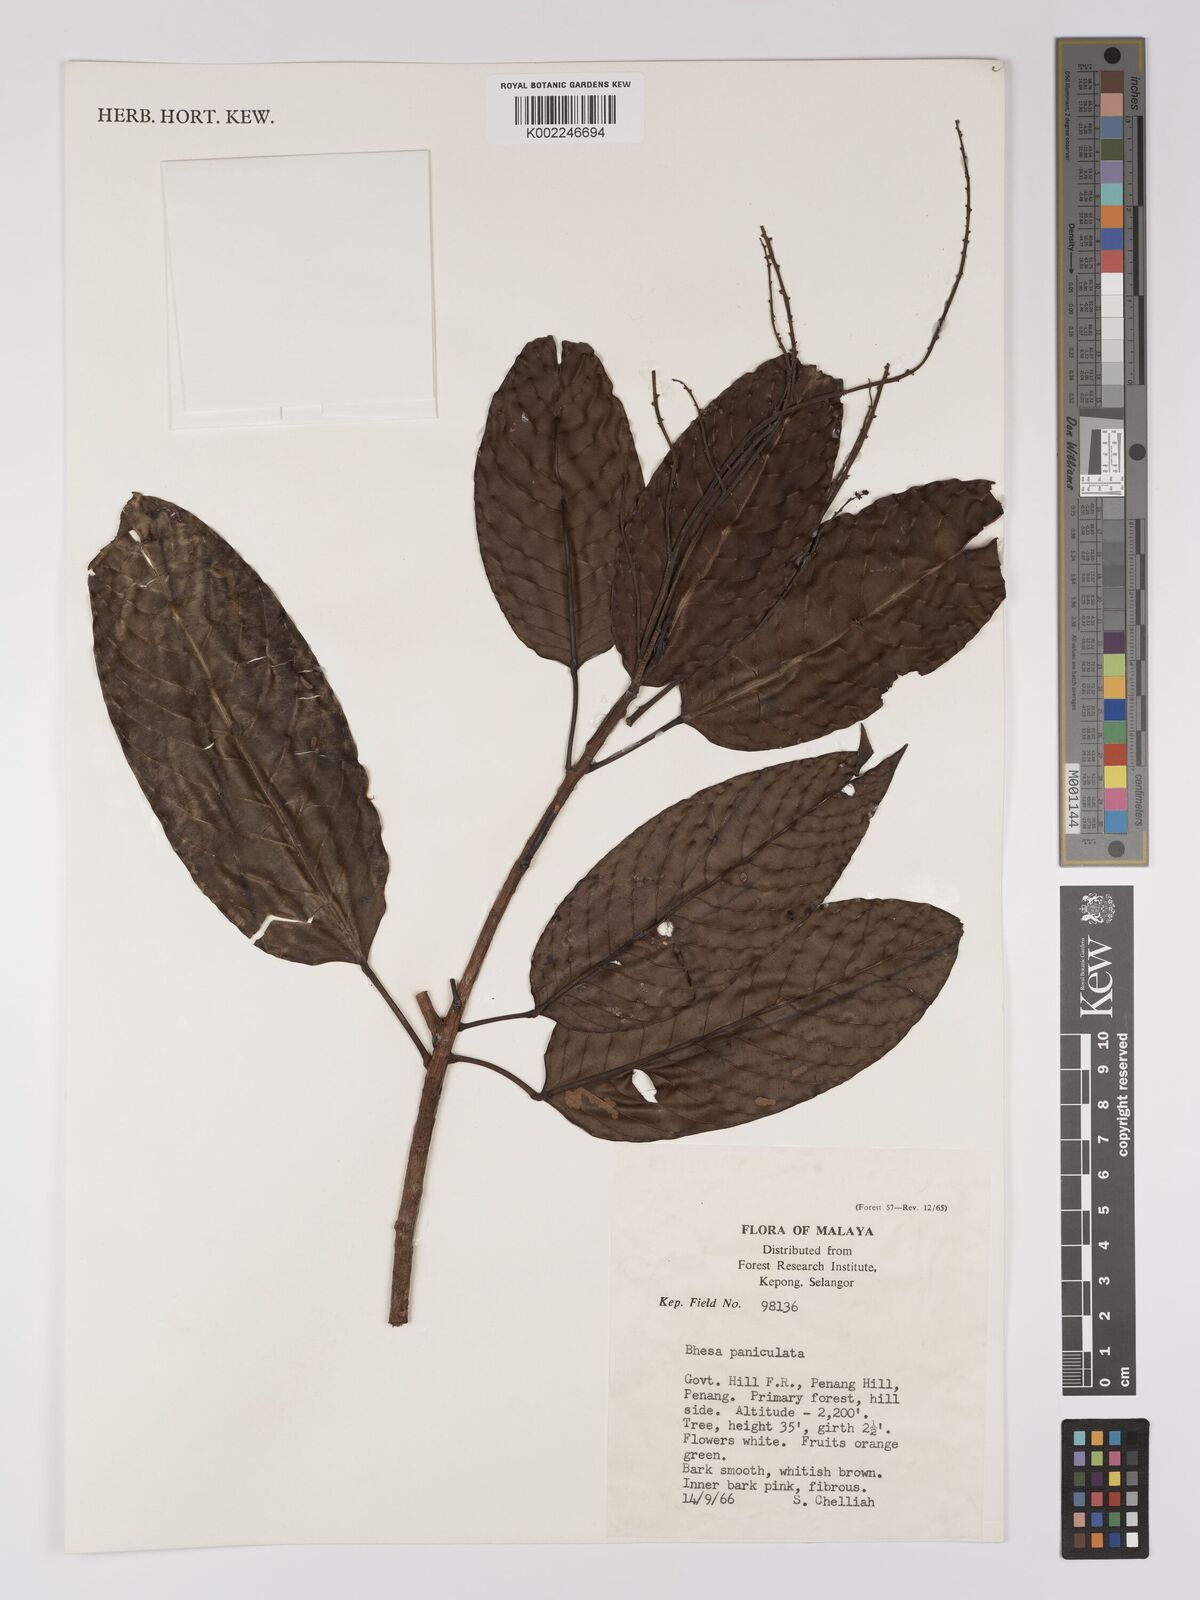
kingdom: Plantae
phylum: Tracheophyta
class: Magnoliopsida
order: Malpighiales
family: Centroplacaceae
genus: Bhesa
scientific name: Bhesa paniculata
